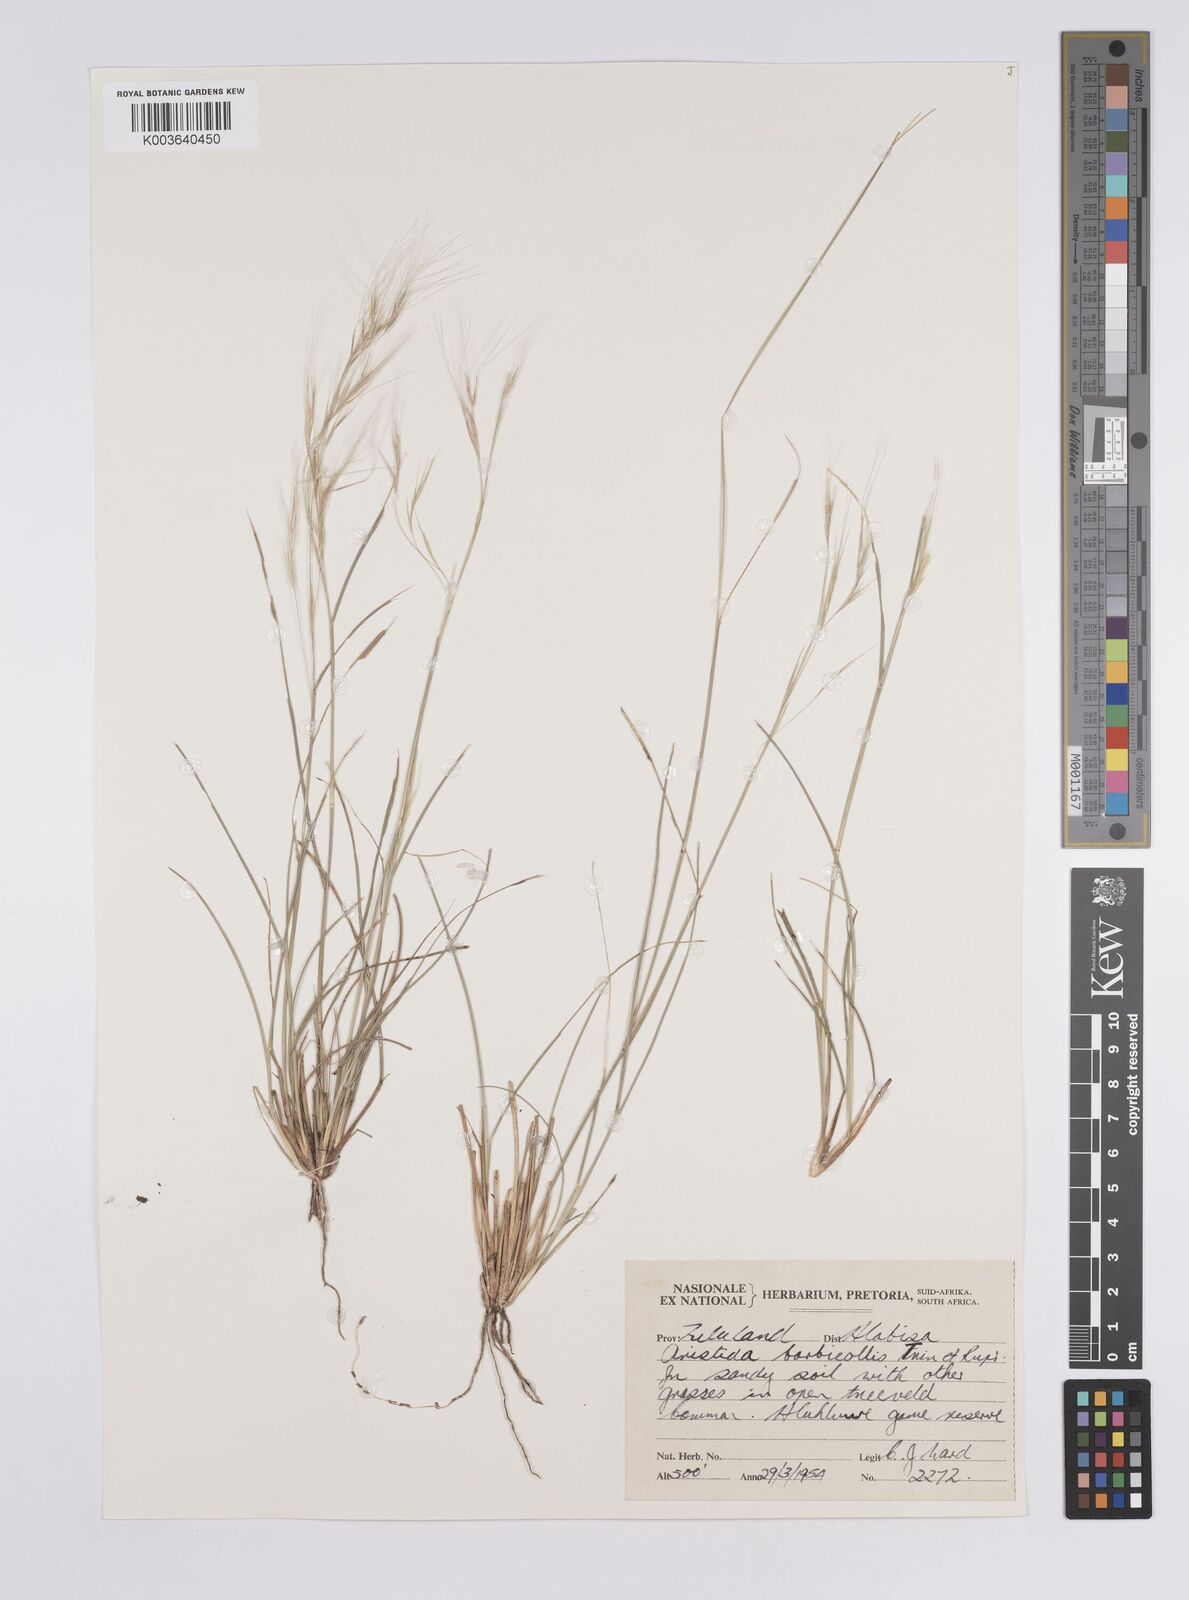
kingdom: Plantae
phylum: Tracheophyta
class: Liliopsida
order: Poales
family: Poaceae
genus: Aristida
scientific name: Aristida barbicollis
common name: Spreading prickle grass
